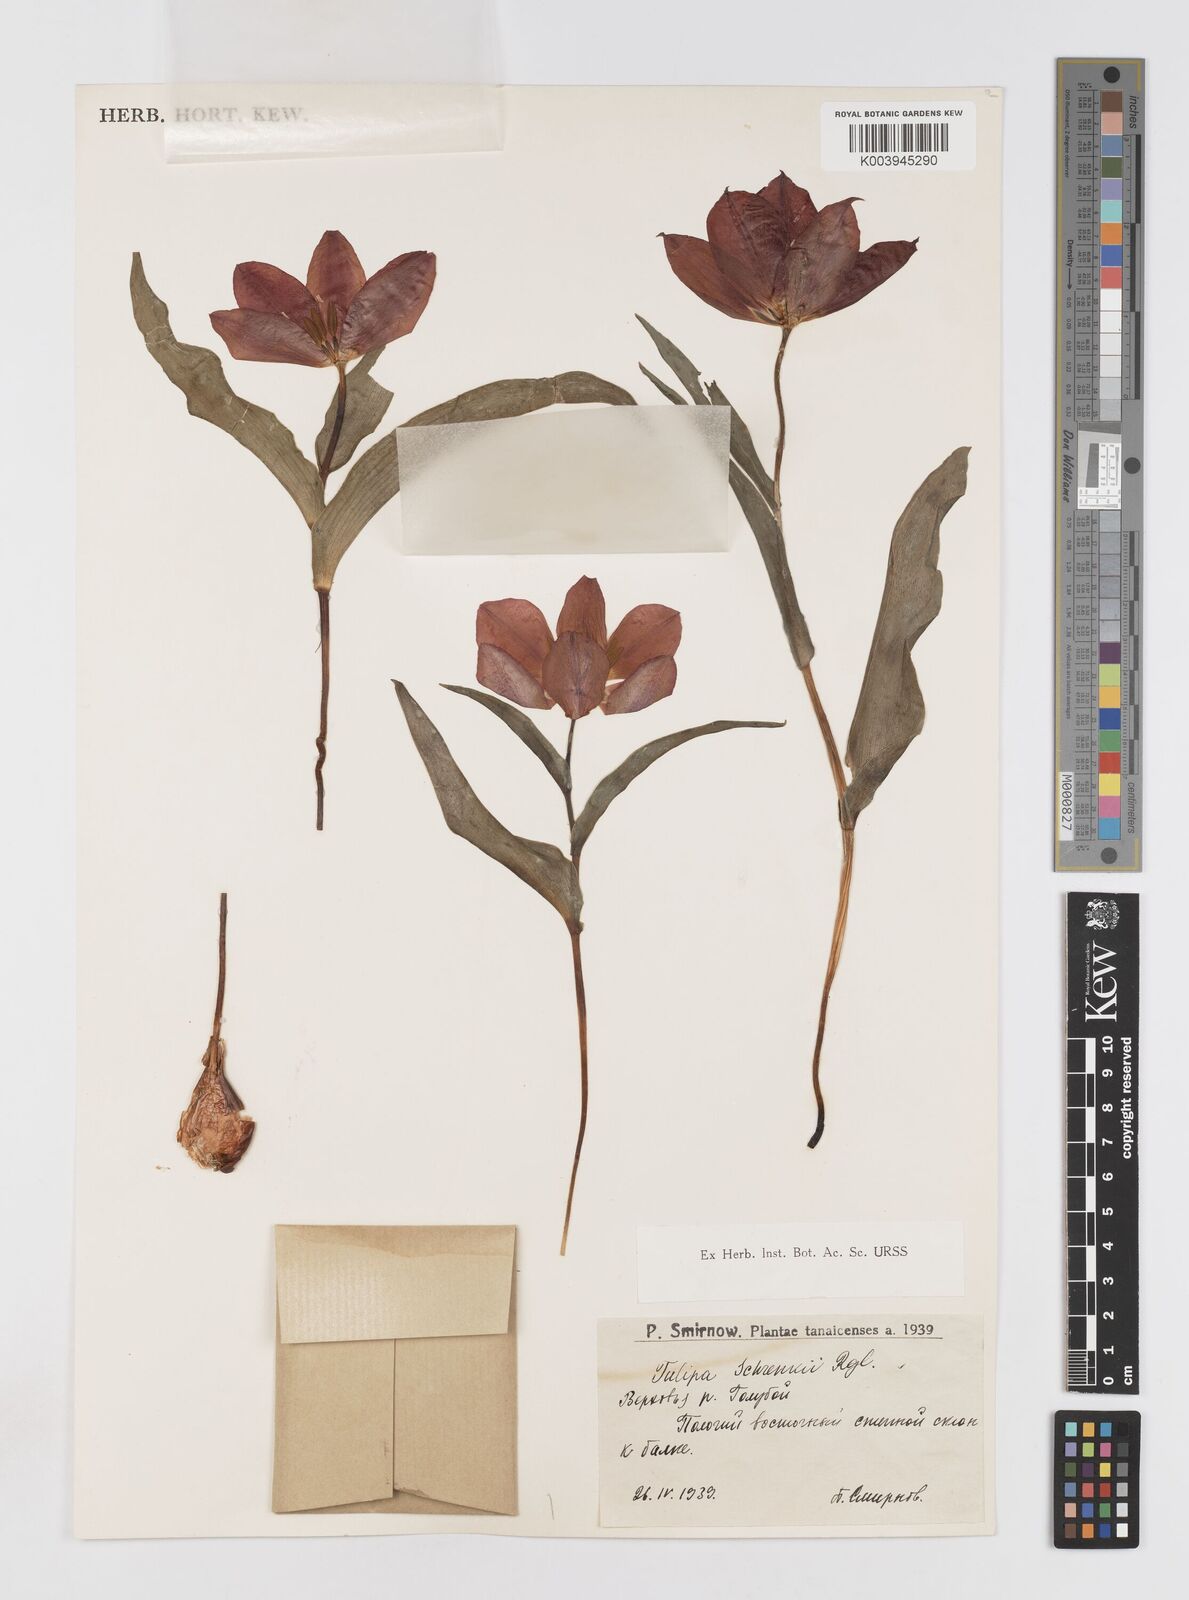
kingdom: Plantae
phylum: Tracheophyta
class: Liliopsida
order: Liliales
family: Liliaceae
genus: Tulipa
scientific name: Tulipa suaveolens
